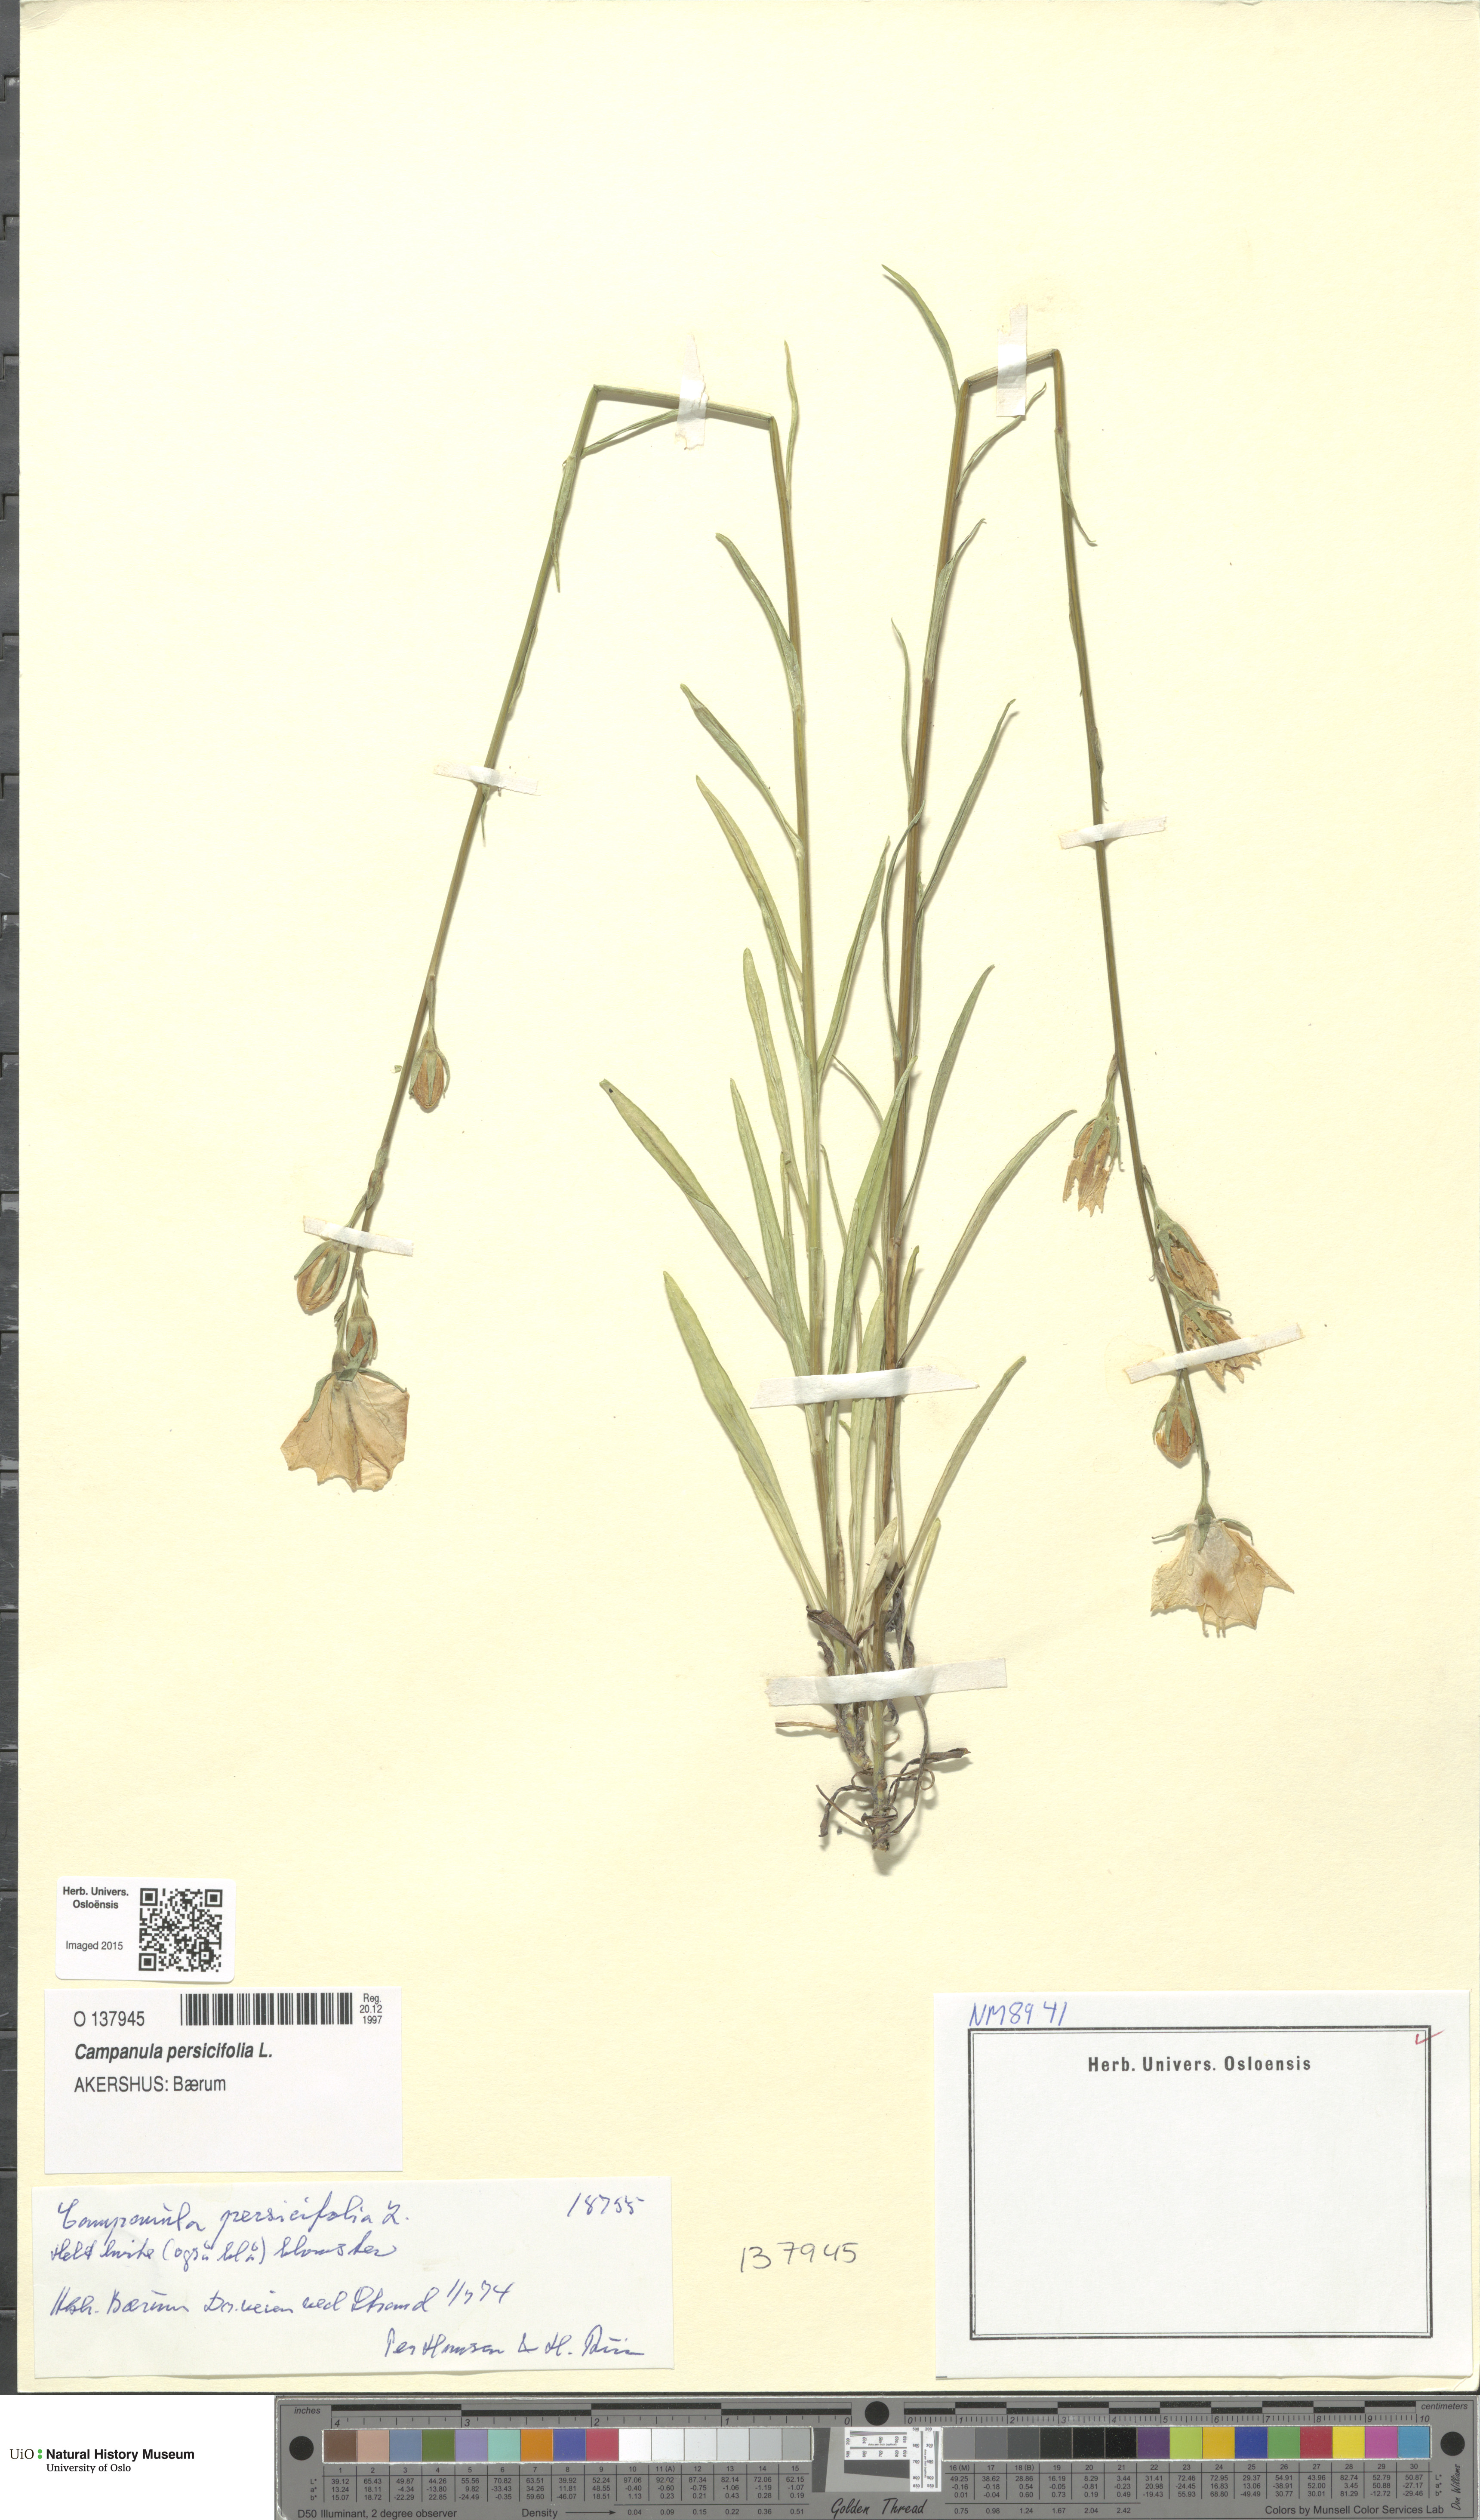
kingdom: Plantae
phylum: Tracheophyta
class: Magnoliopsida
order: Asterales
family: Campanulaceae
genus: Campanula
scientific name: Campanula persicifolia
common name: Peach-leaved bellflower
